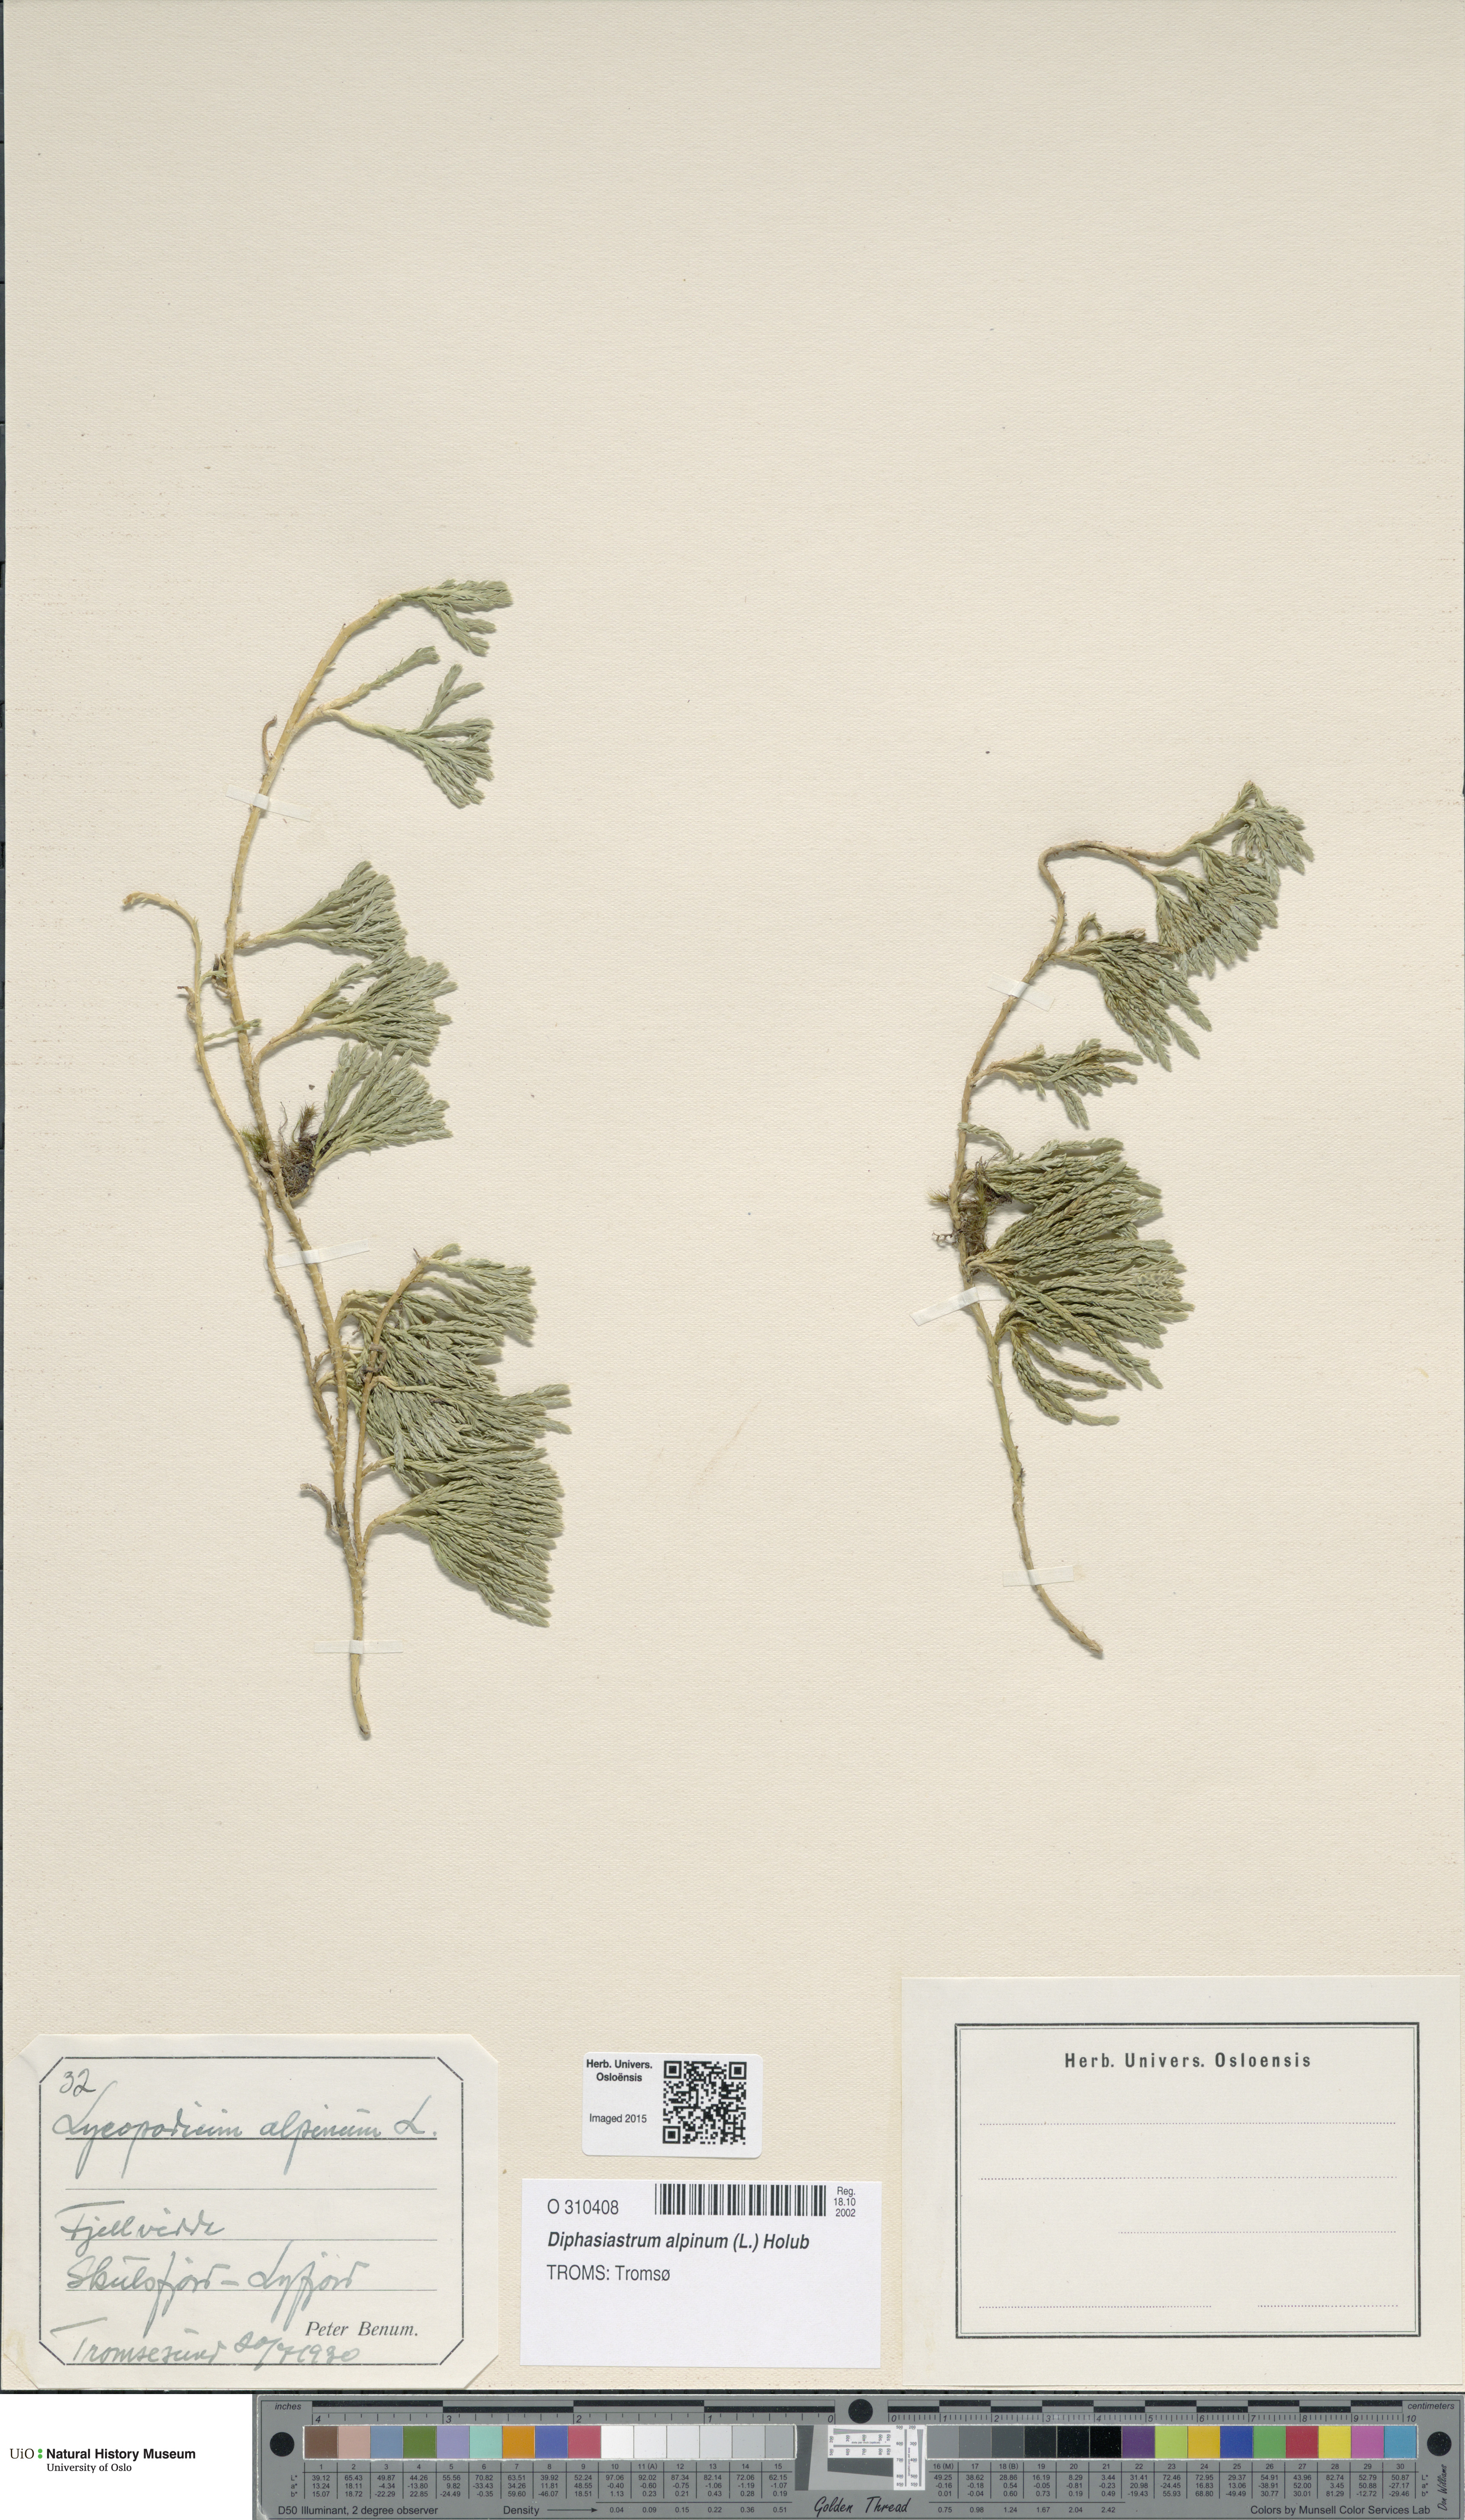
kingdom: Plantae
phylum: Tracheophyta
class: Lycopodiopsida
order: Lycopodiales
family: Lycopodiaceae
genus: Diphasiastrum
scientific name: Diphasiastrum alpinum
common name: Alpine clubmoss
